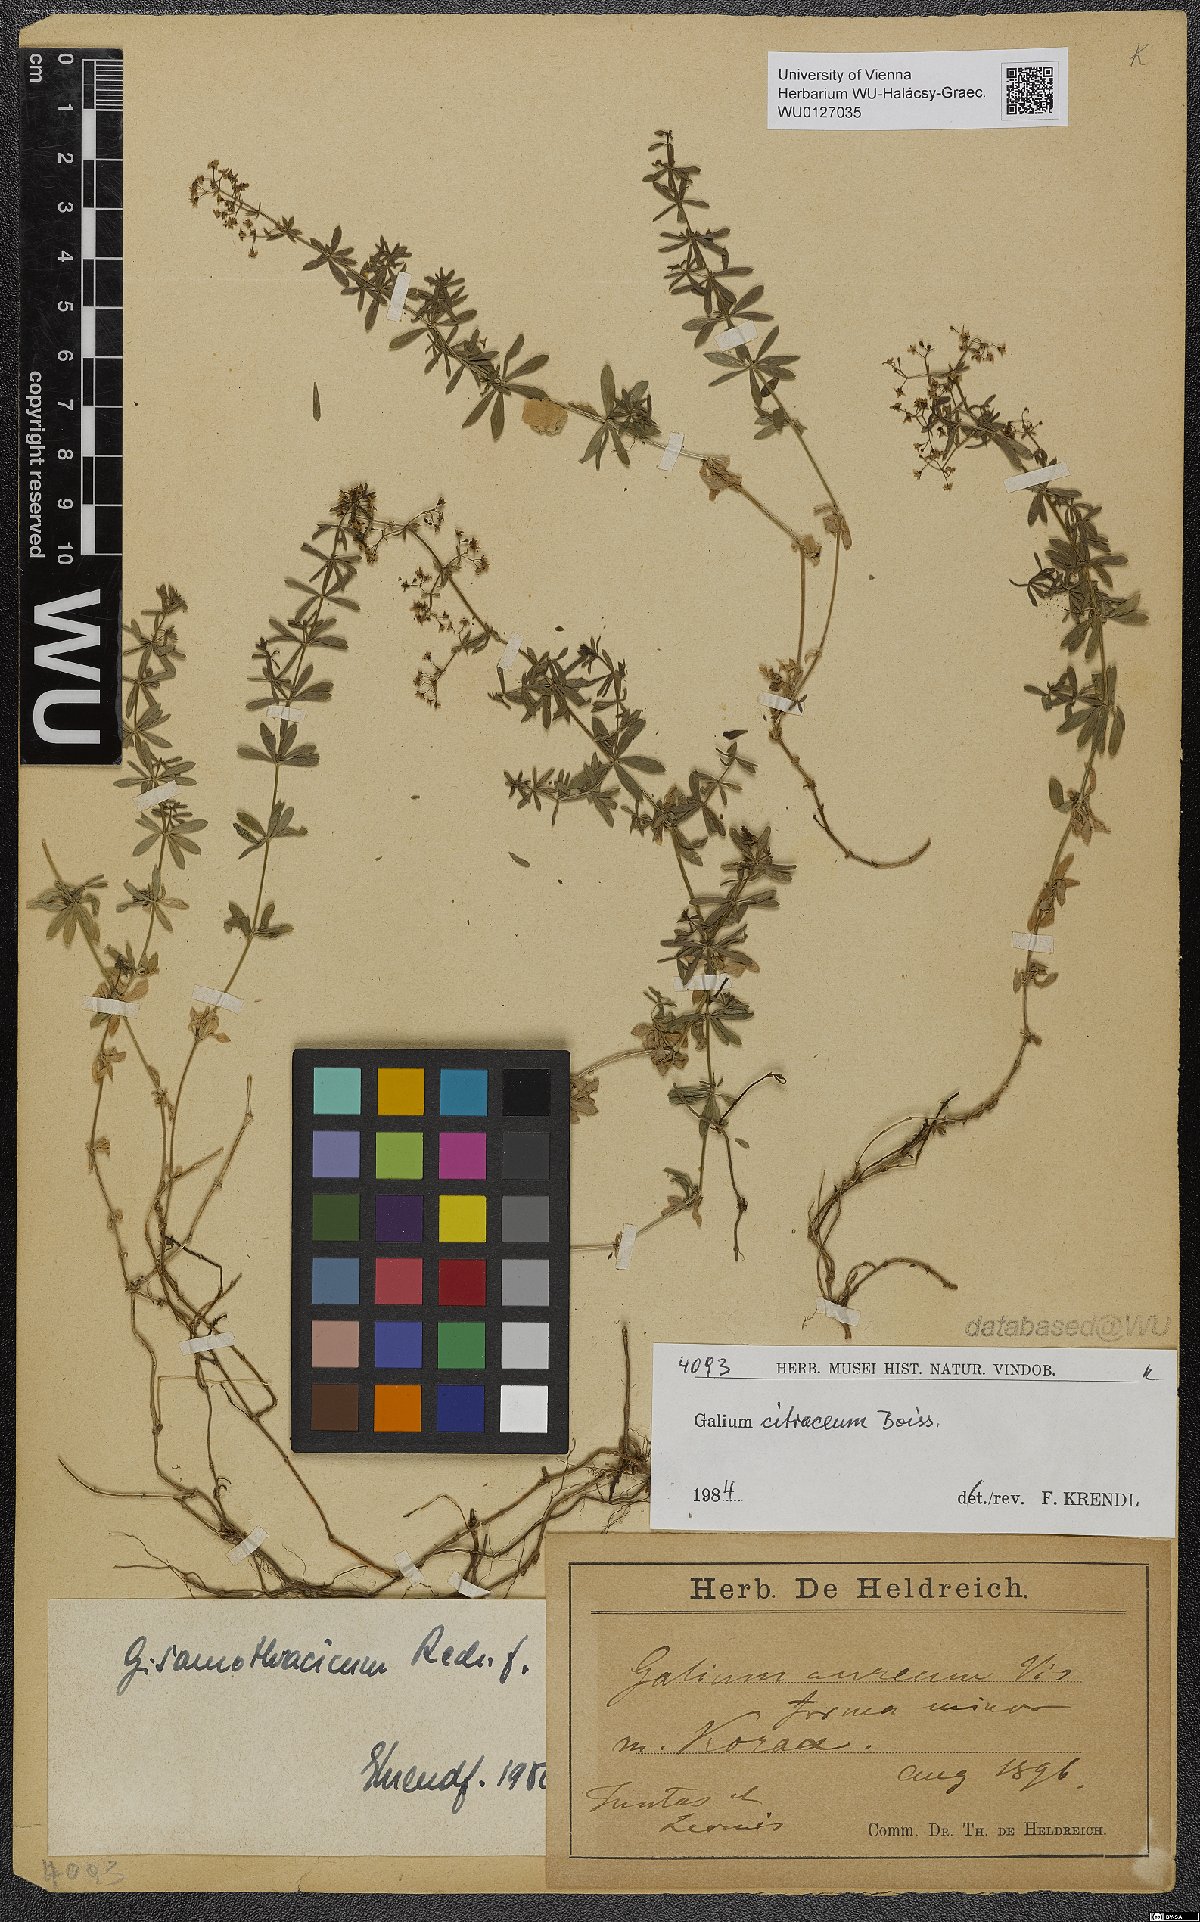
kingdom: Plantae
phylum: Tracheophyta
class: Magnoliopsida
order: Gentianales
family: Rubiaceae
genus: Galium
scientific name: Galium citraceum
